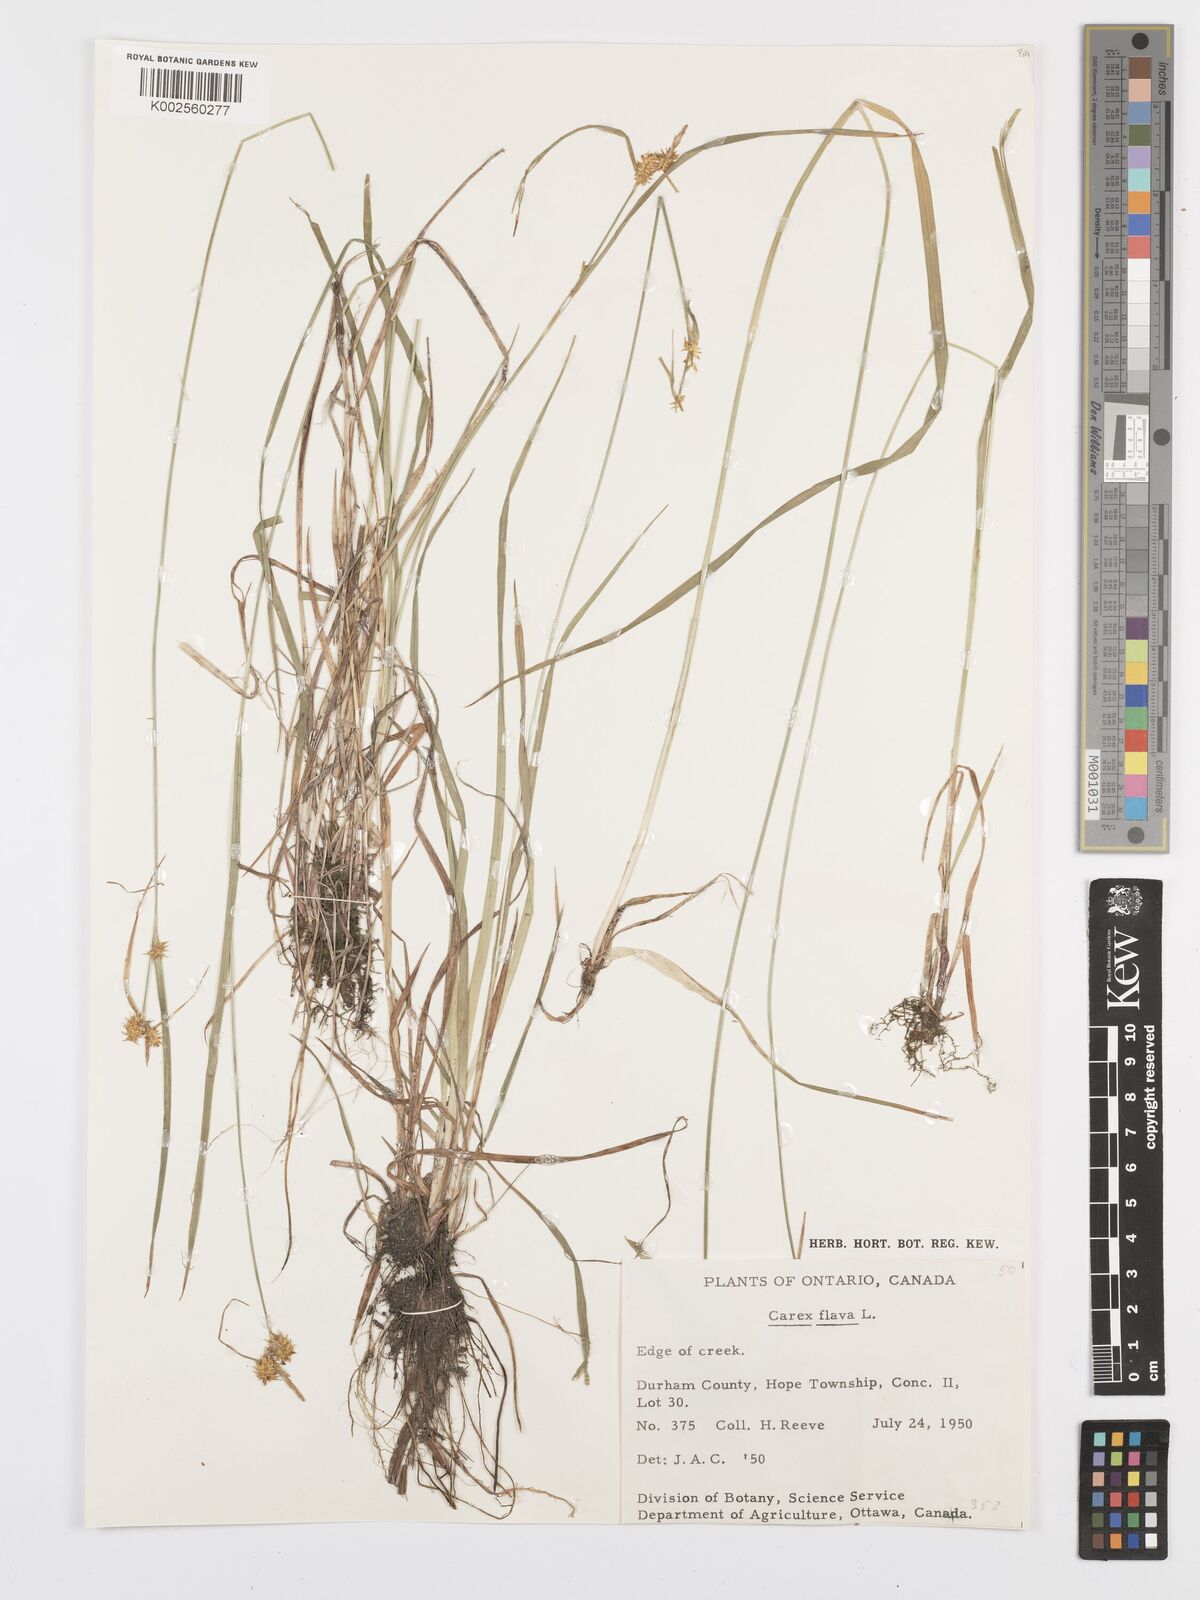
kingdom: Plantae
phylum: Tracheophyta
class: Liliopsida
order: Poales
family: Cyperaceae
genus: Carex
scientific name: Carex flava
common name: Large yellow-sedge
